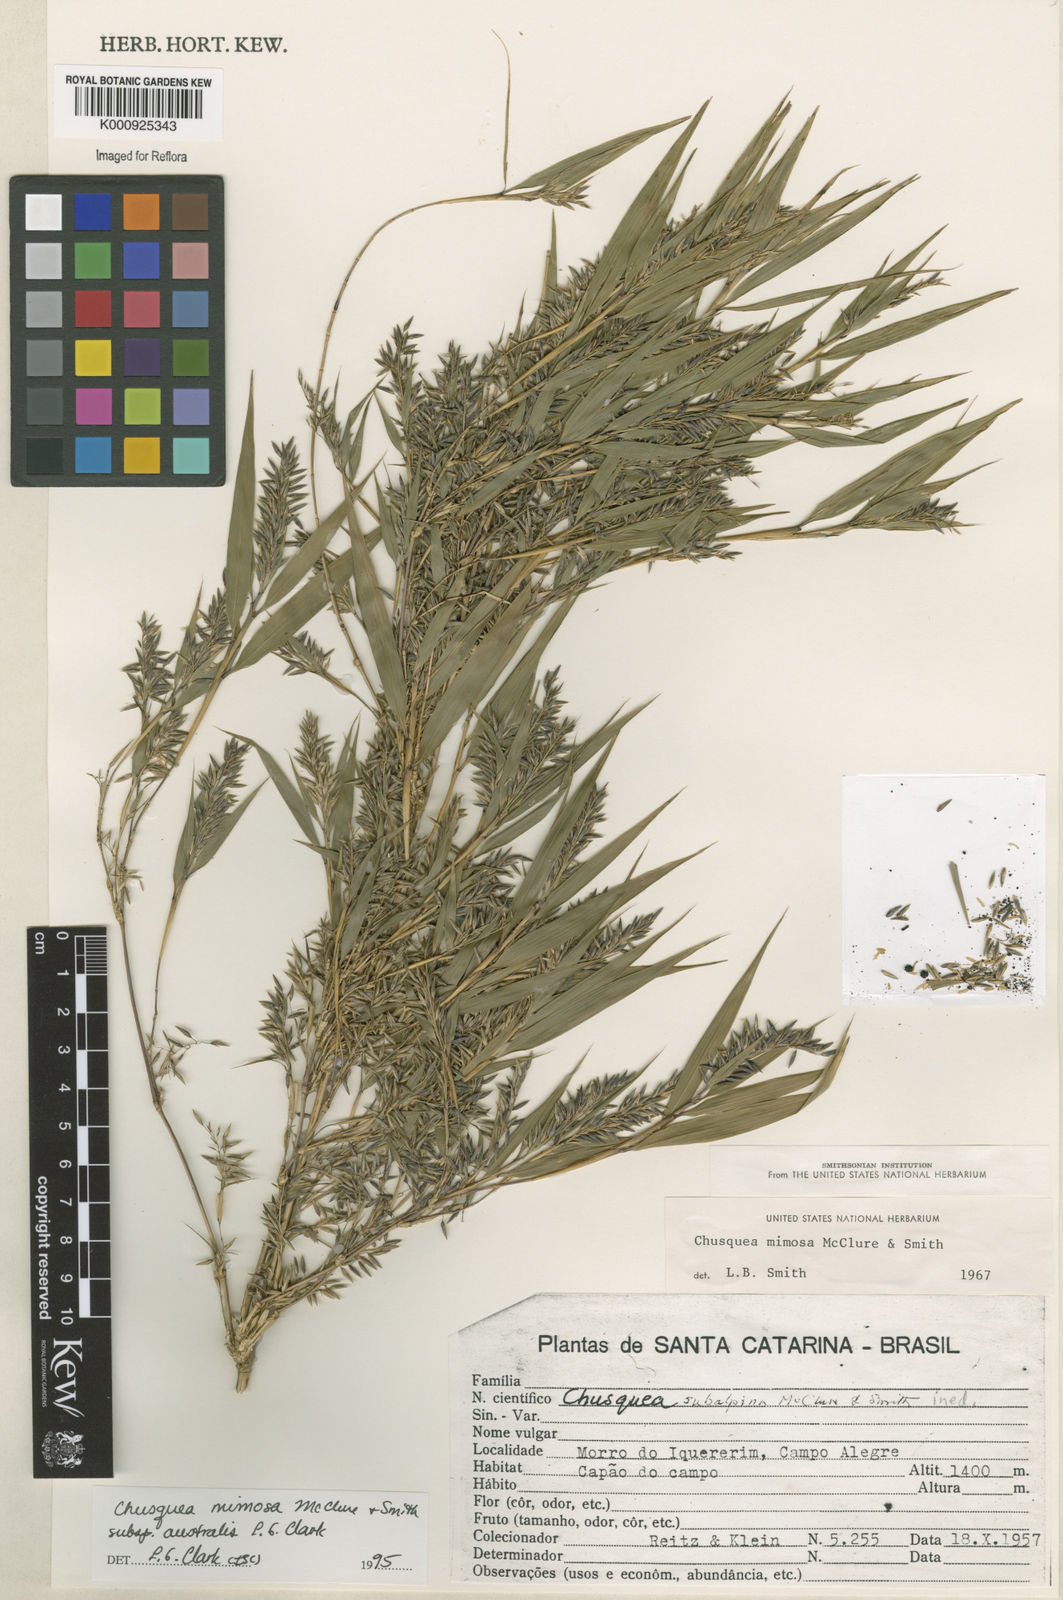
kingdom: Plantae
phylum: Tracheophyta
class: Liliopsida
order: Poales
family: Poaceae
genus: Chusquea
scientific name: Chusquea mimosa
